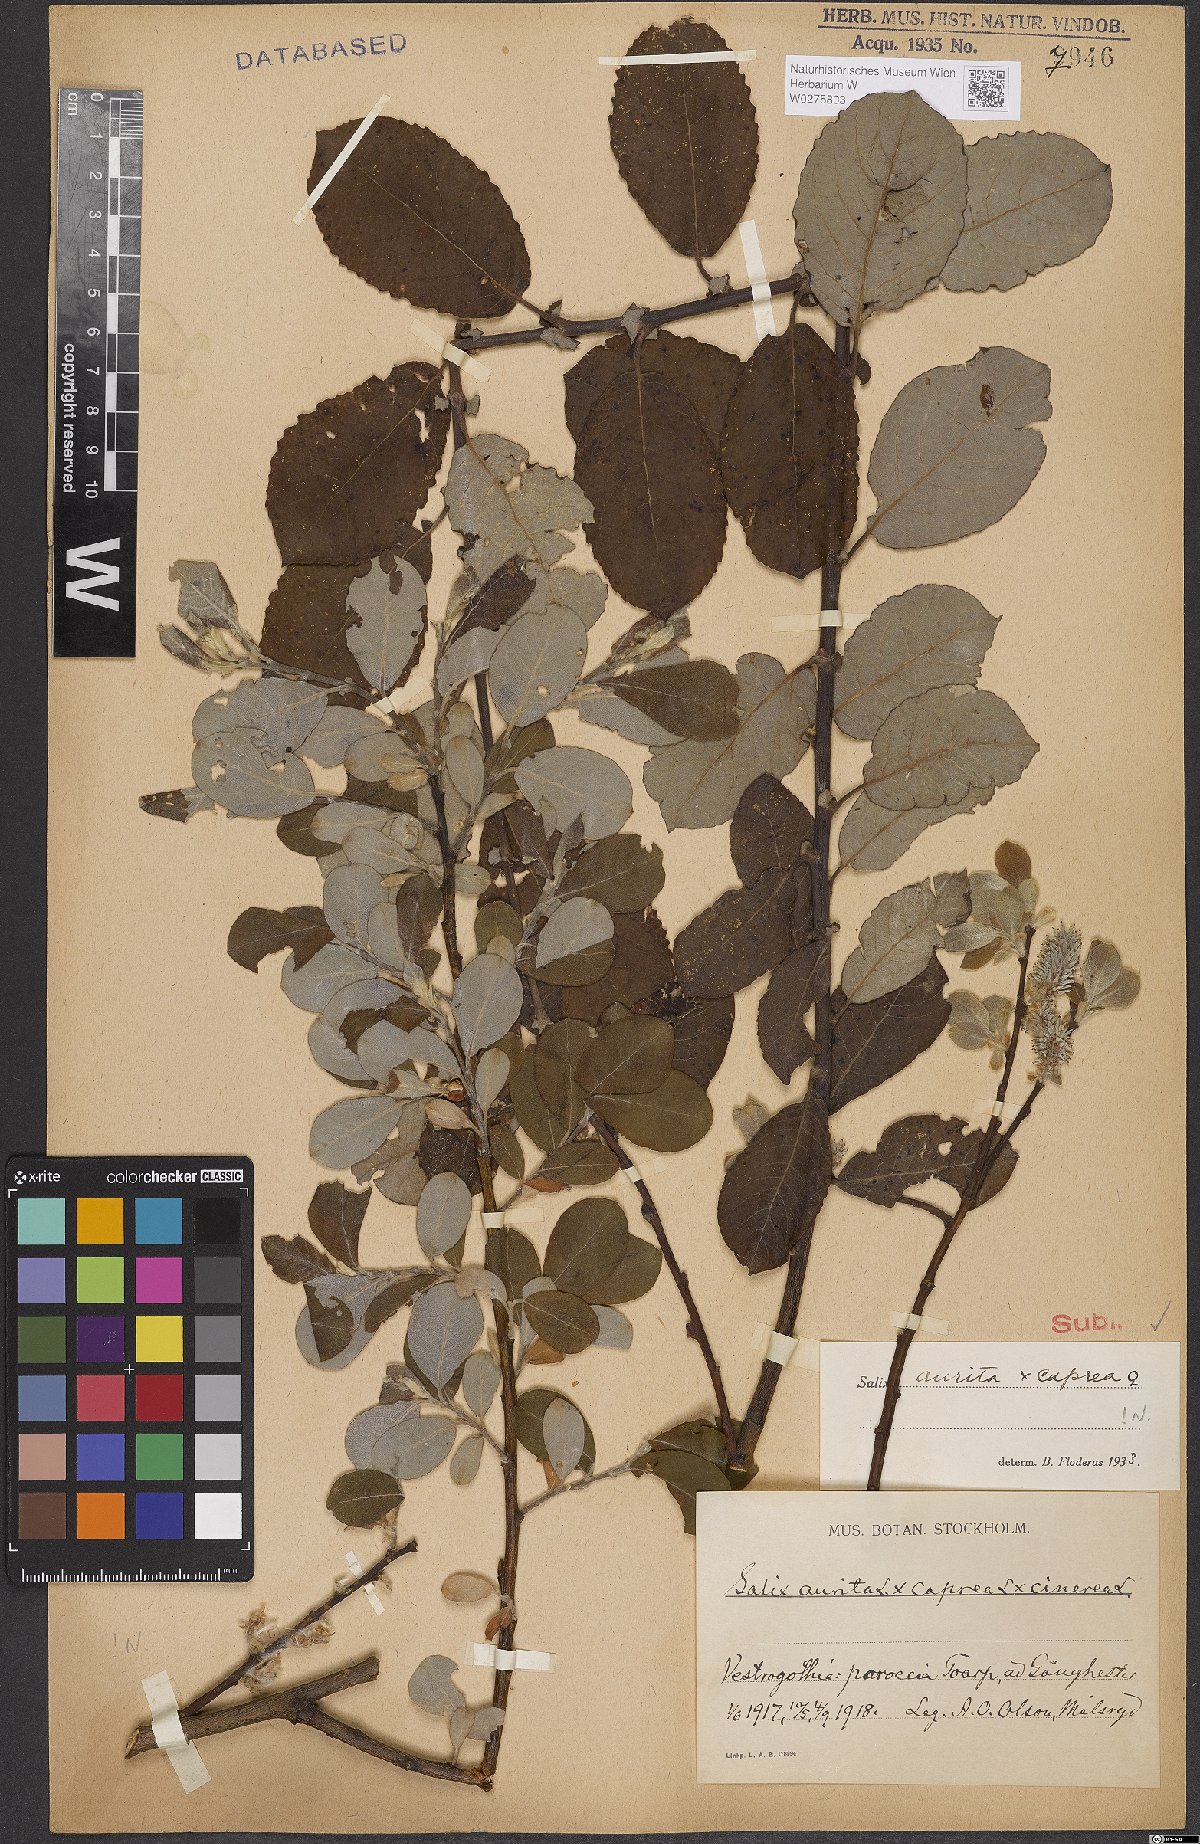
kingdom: Plantae
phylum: Tracheophyta
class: Magnoliopsida
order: Malpighiales
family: Salicaceae
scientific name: Salicaceae
